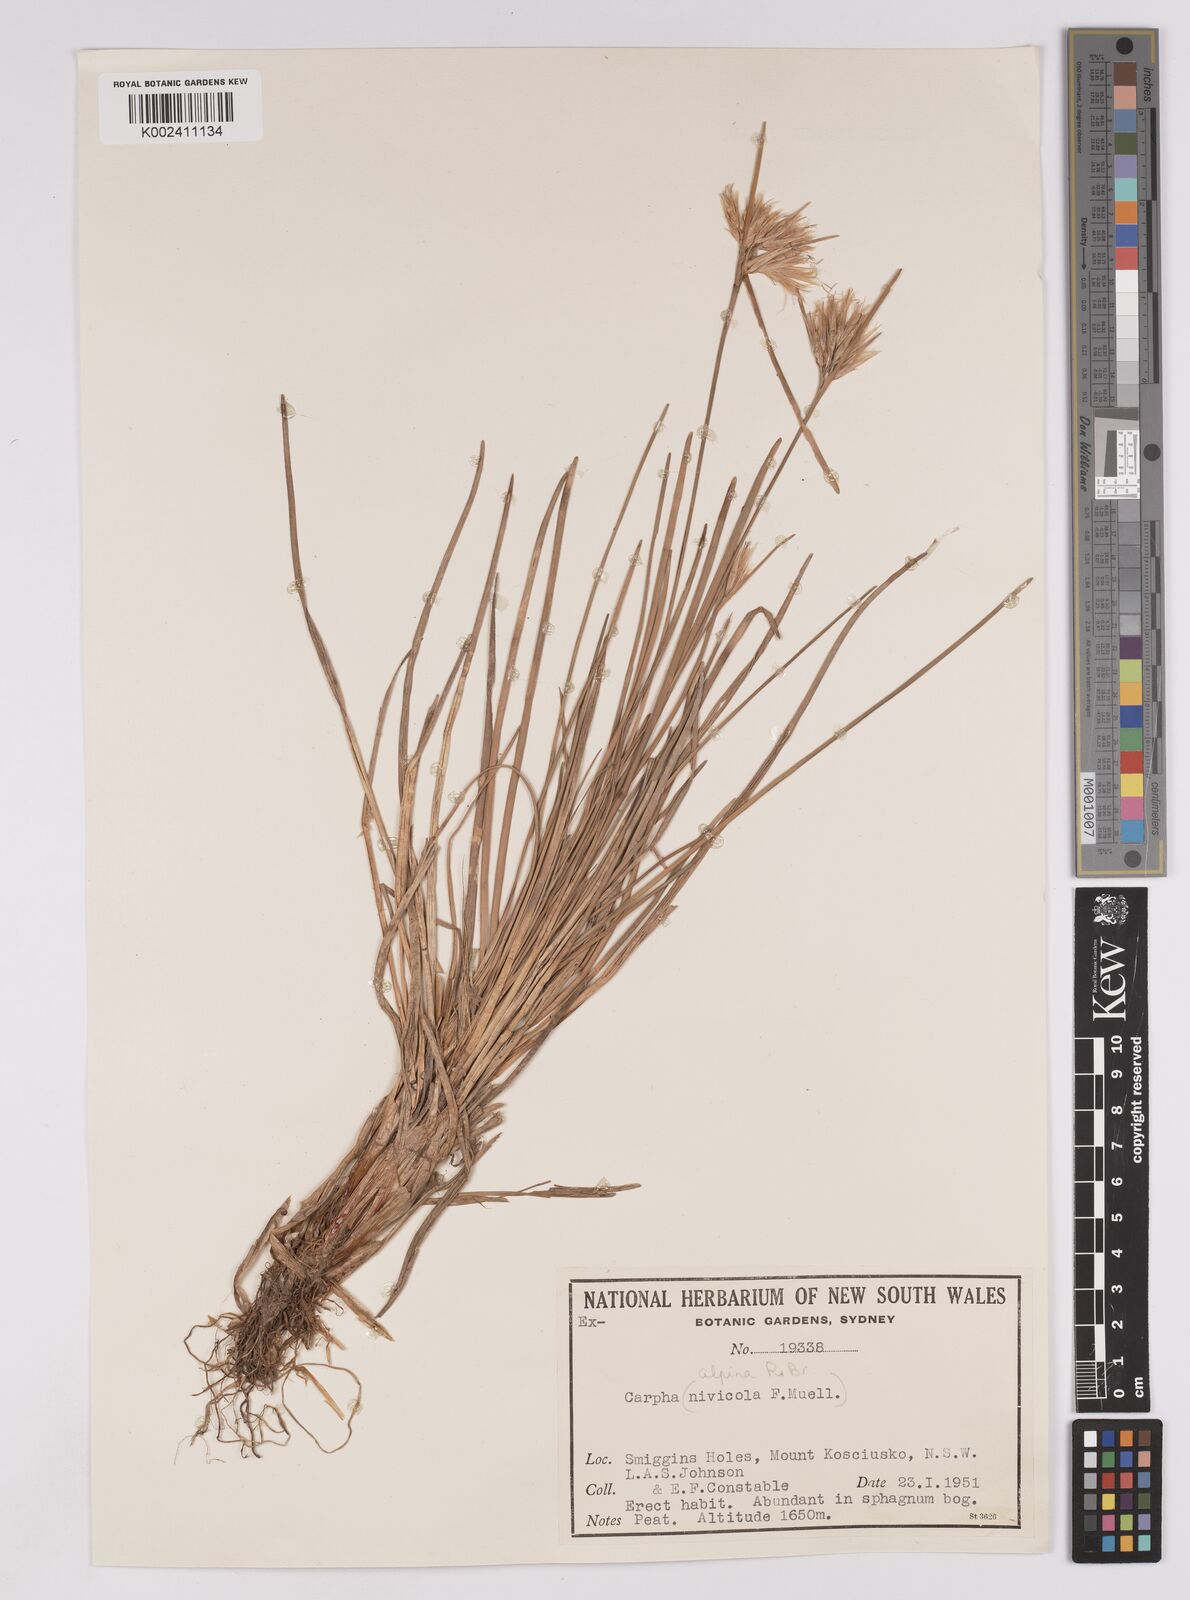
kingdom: Plantae
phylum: Tracheophyta
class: Liliopsida
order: Poales
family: Cyperaceae
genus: Carpha
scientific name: Carpha alpina
